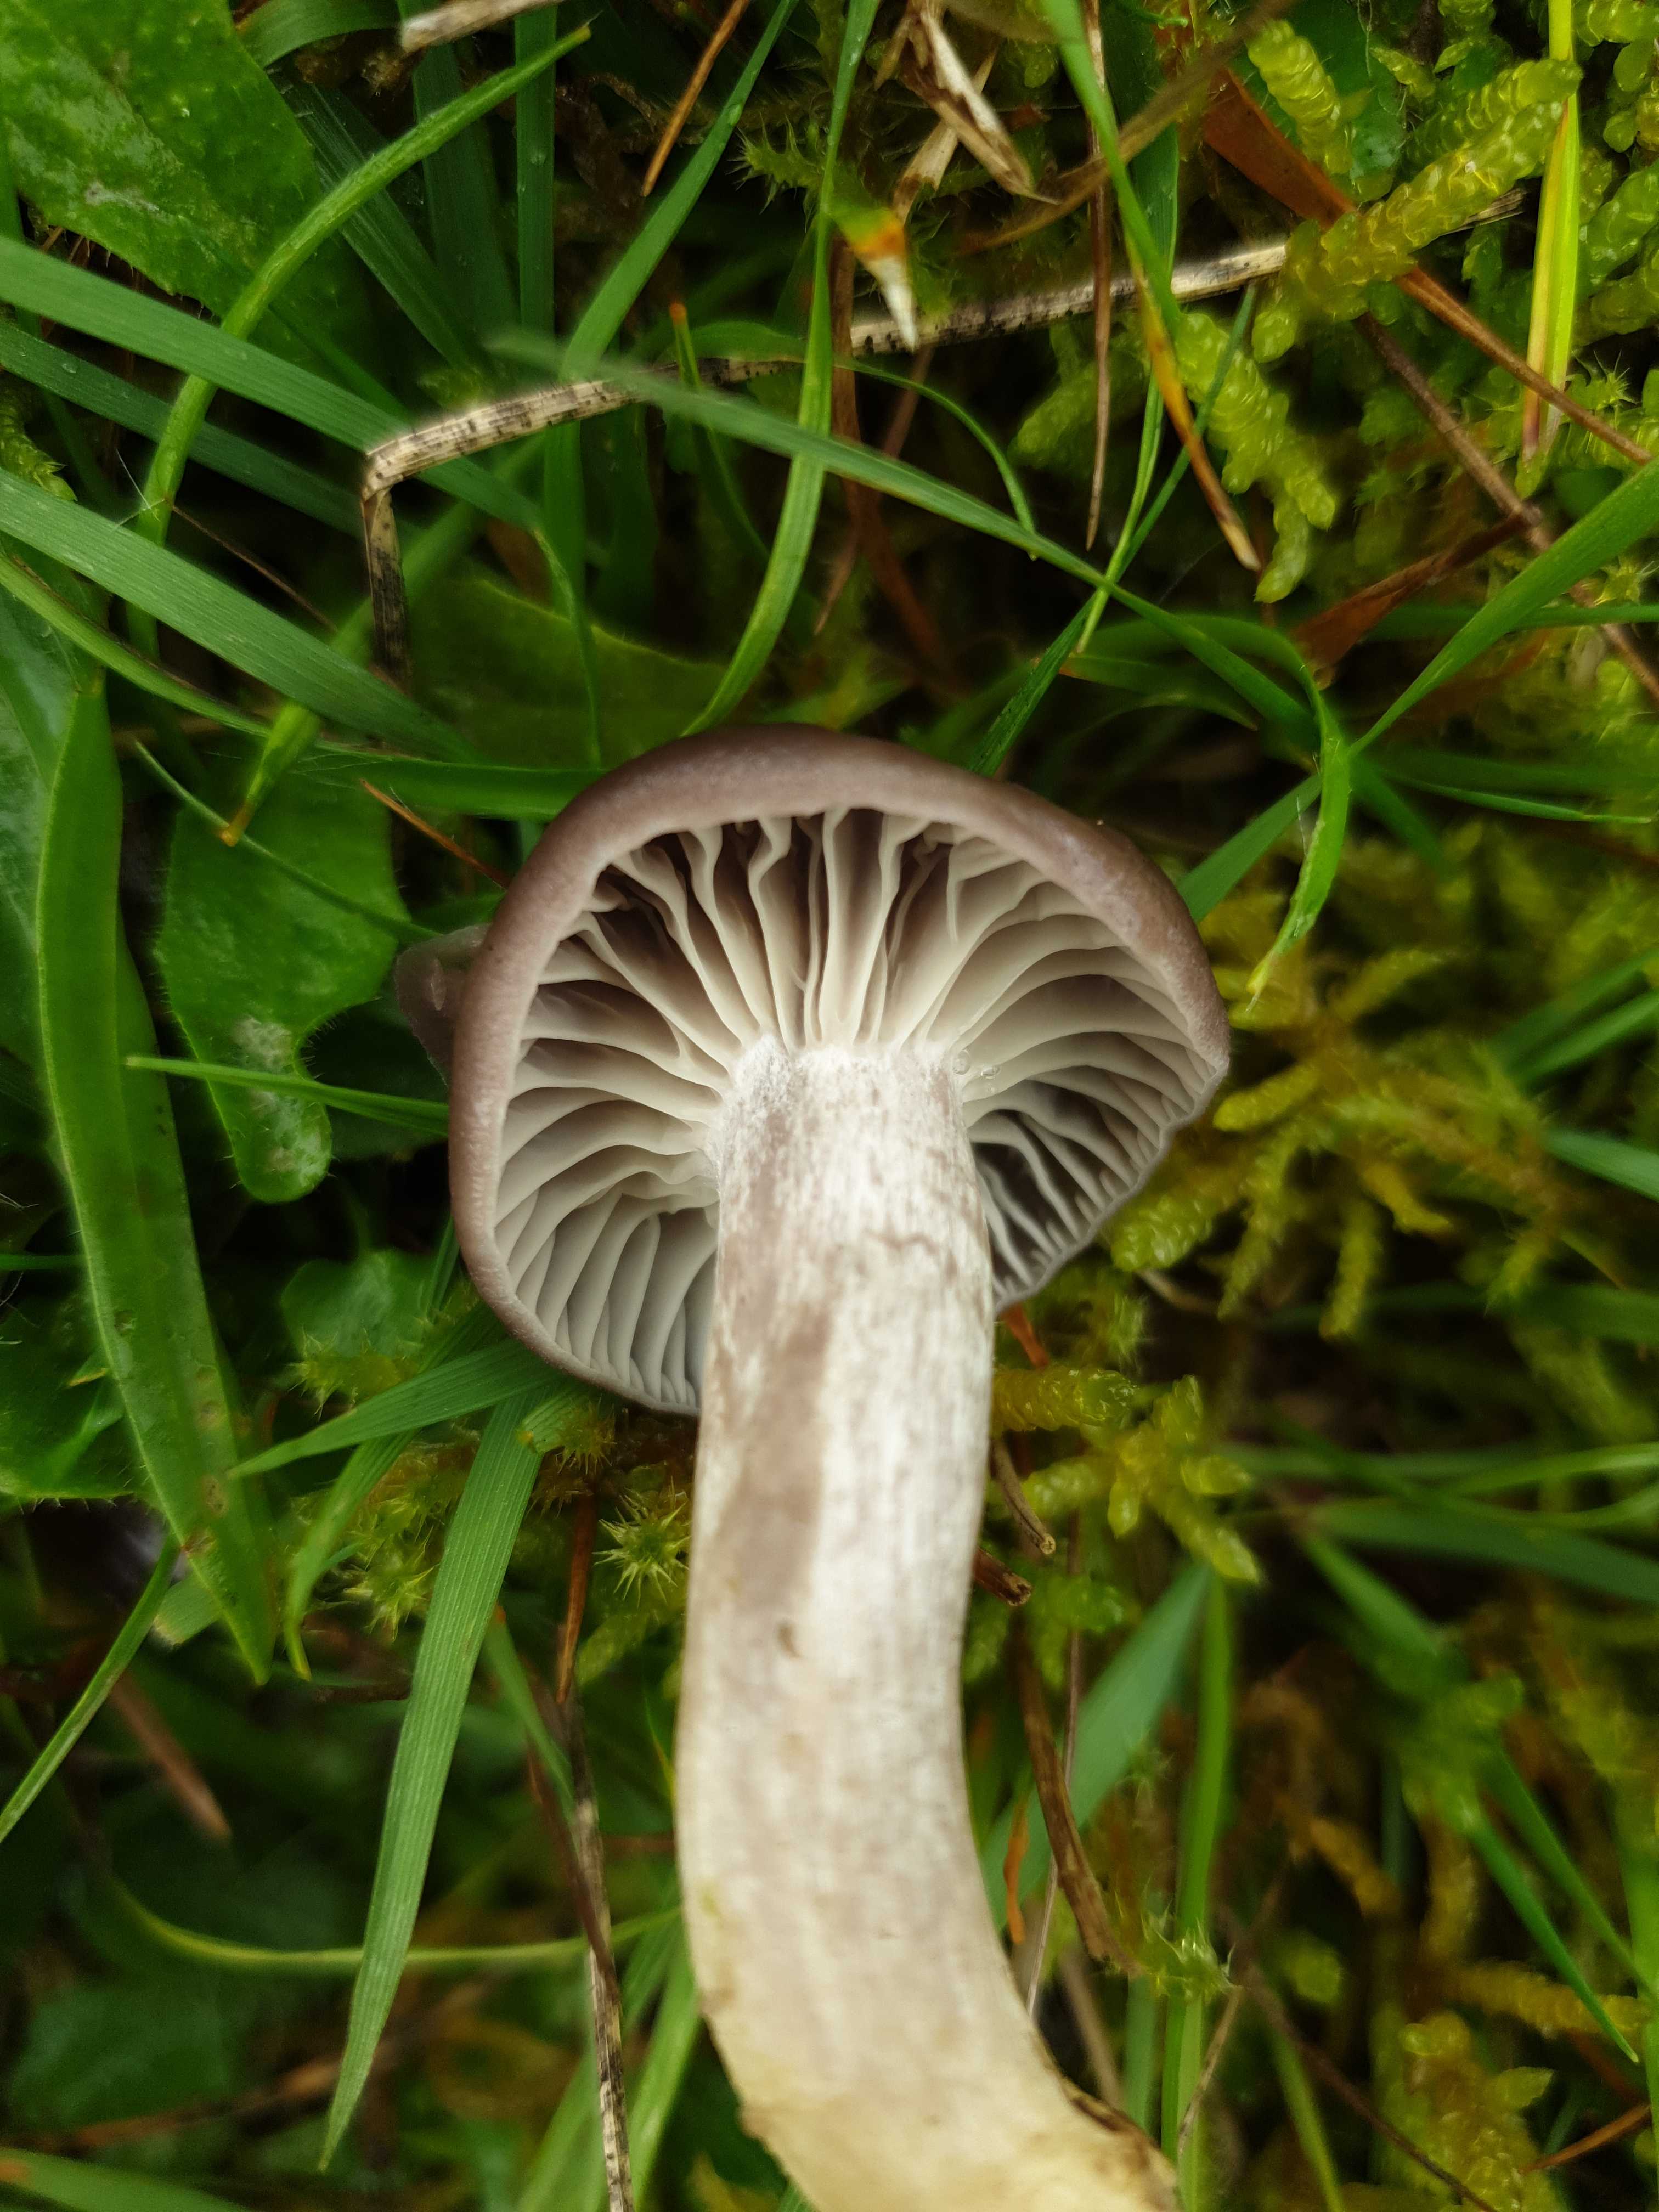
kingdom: Fungi
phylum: Basidiomycota
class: Agaricomycetes
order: Agaricales
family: Hygrophoraceae
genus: Cuphophyllus
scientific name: Cuphophyllus flavipes
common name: gulfodet vokshat
